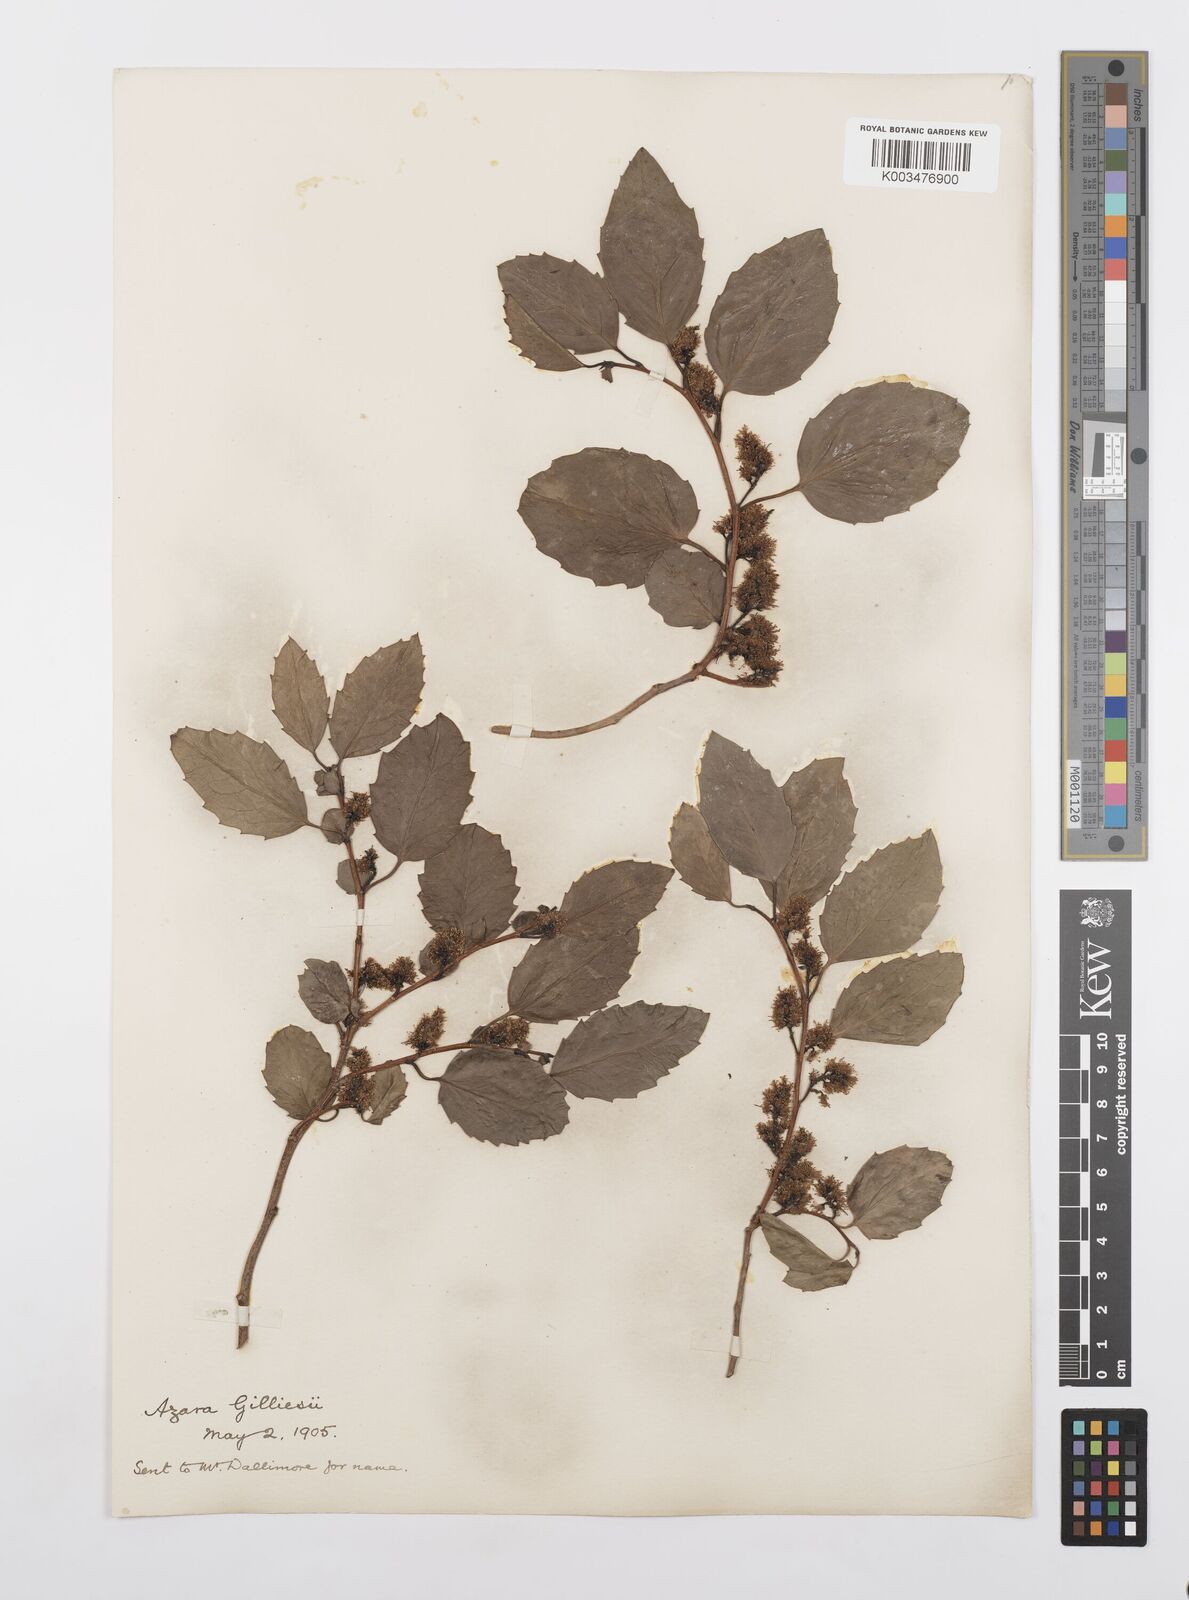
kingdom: Plantae
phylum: Tracheophyta
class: Magnoliopsida
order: Malpighiales
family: Salicaceae
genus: Azara
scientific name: Azara petiolaris
